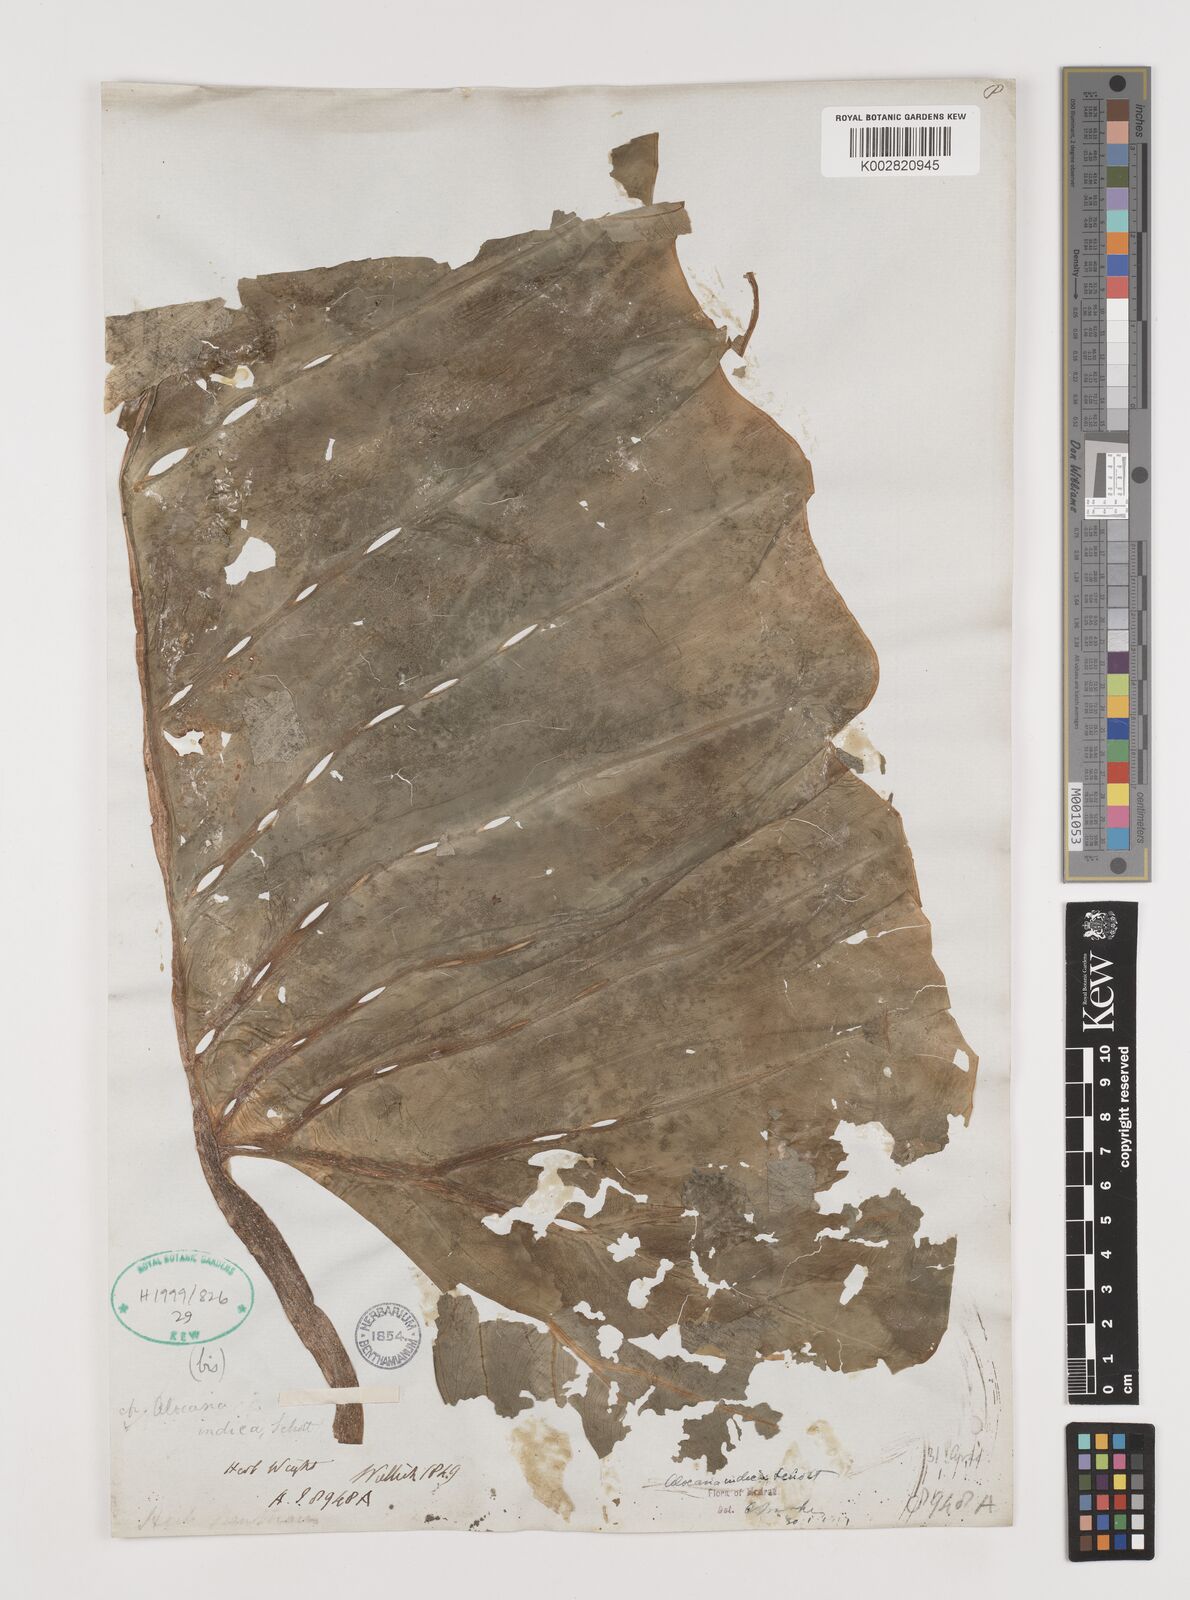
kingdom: Plantae
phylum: Tracheophyta
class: Liliopsida
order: Alismatales
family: Araceae
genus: Alocasia
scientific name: Alocasia macrorrhizos
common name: Giant taro
